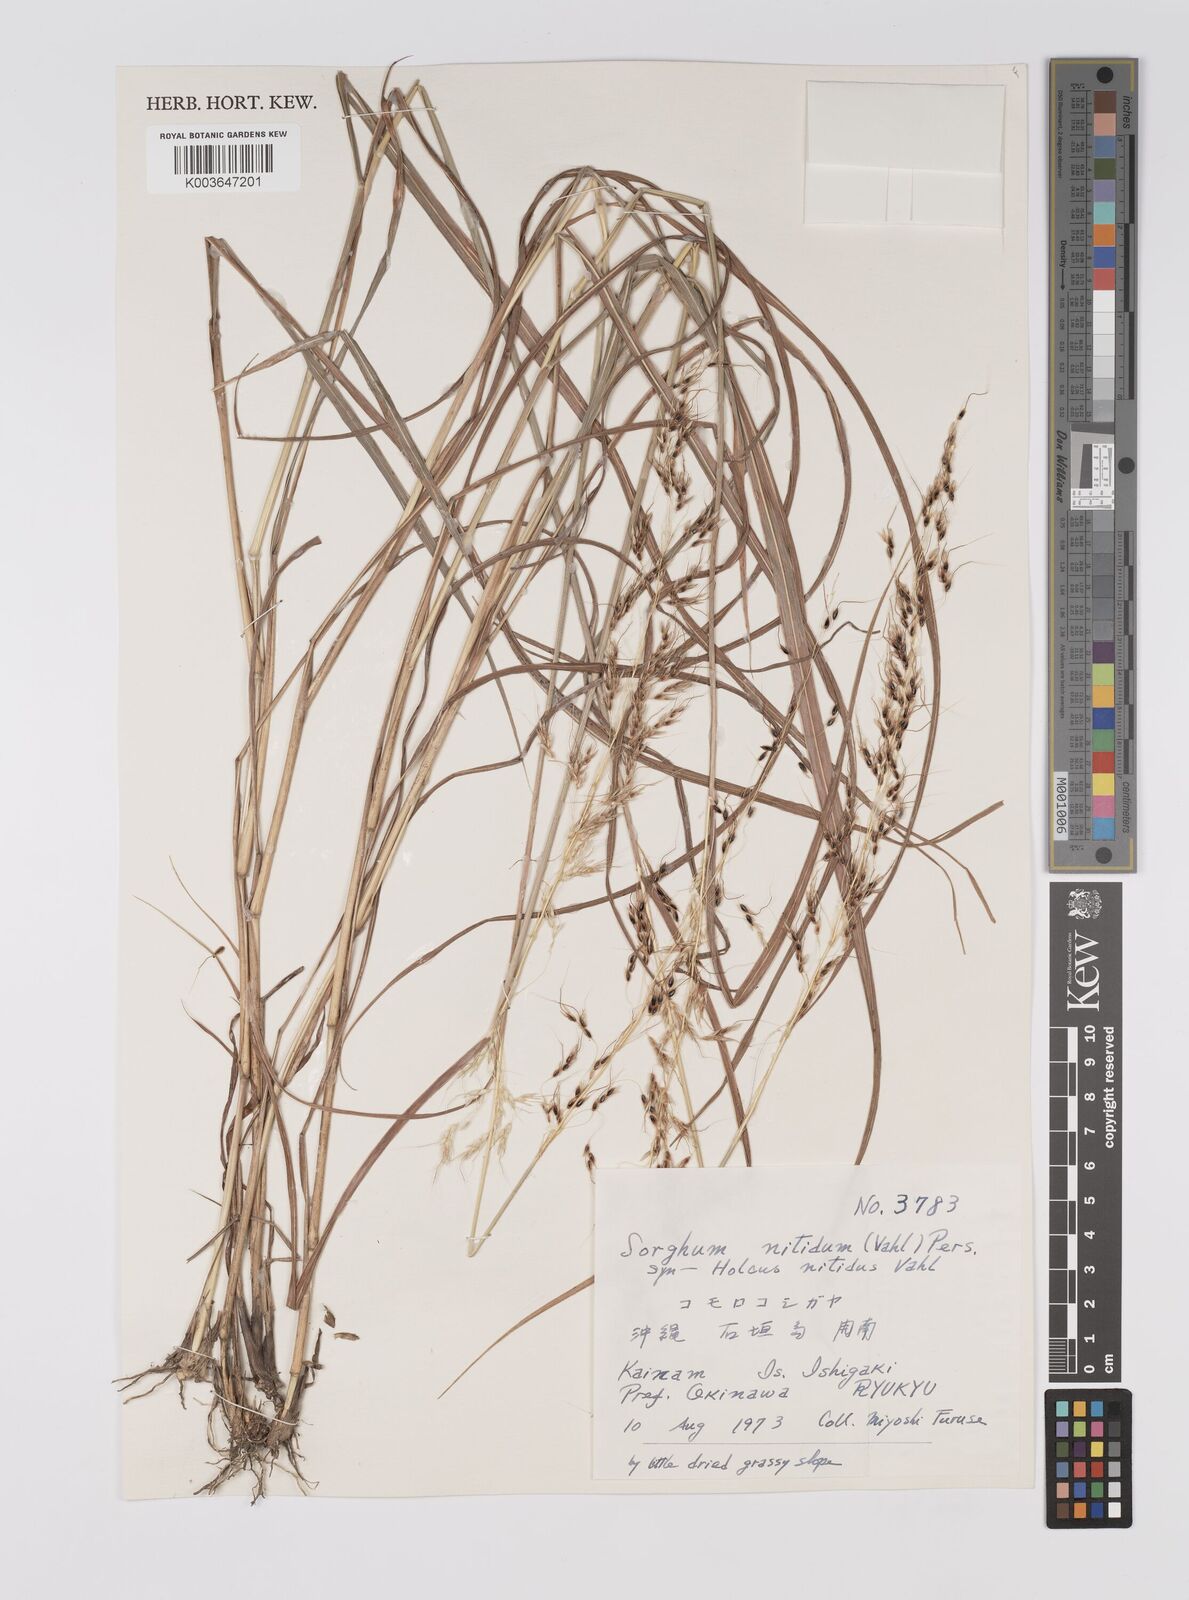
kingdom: Plantae
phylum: Tracheophyta
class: Liliopsida
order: Poales
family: Poaceae
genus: Sorghum
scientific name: Sorghum nitidum
